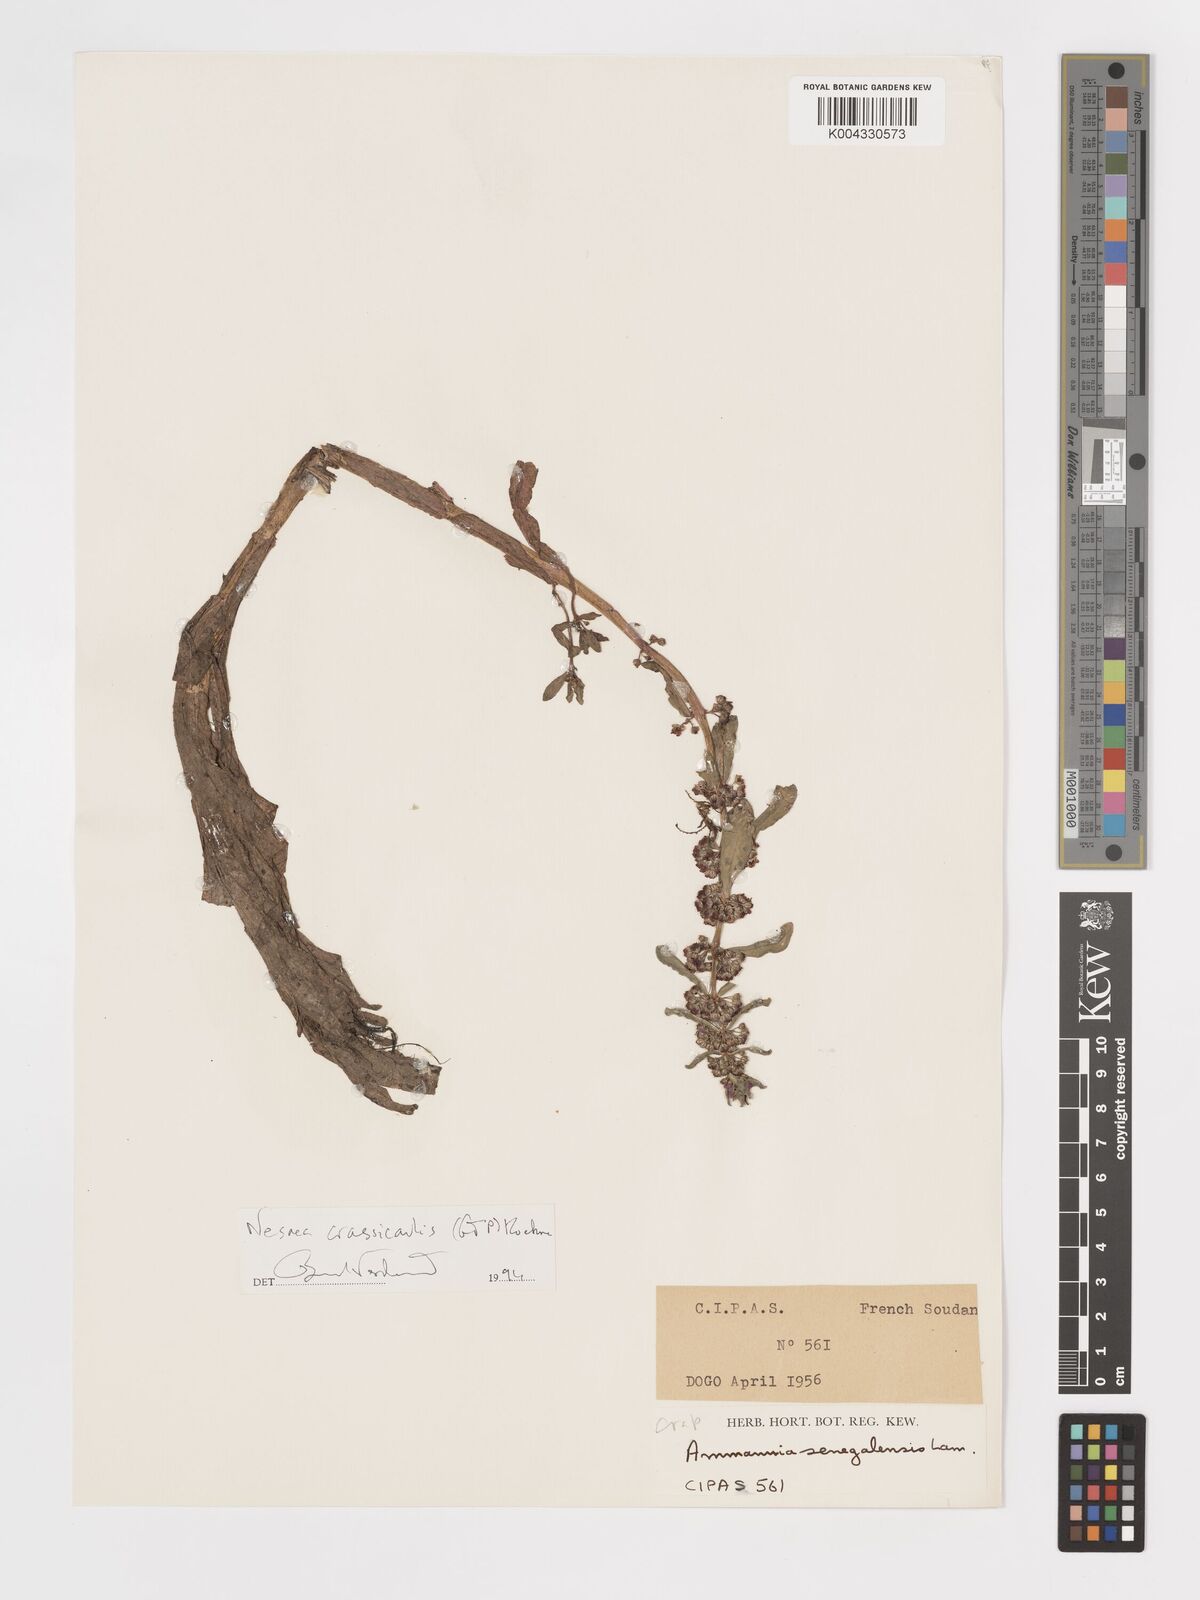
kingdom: Plantae
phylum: Tracheophyta
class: Magnoliopsida
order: Myrtales
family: Lythraceae
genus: Ammannia
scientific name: Ammannia crassicaulis
